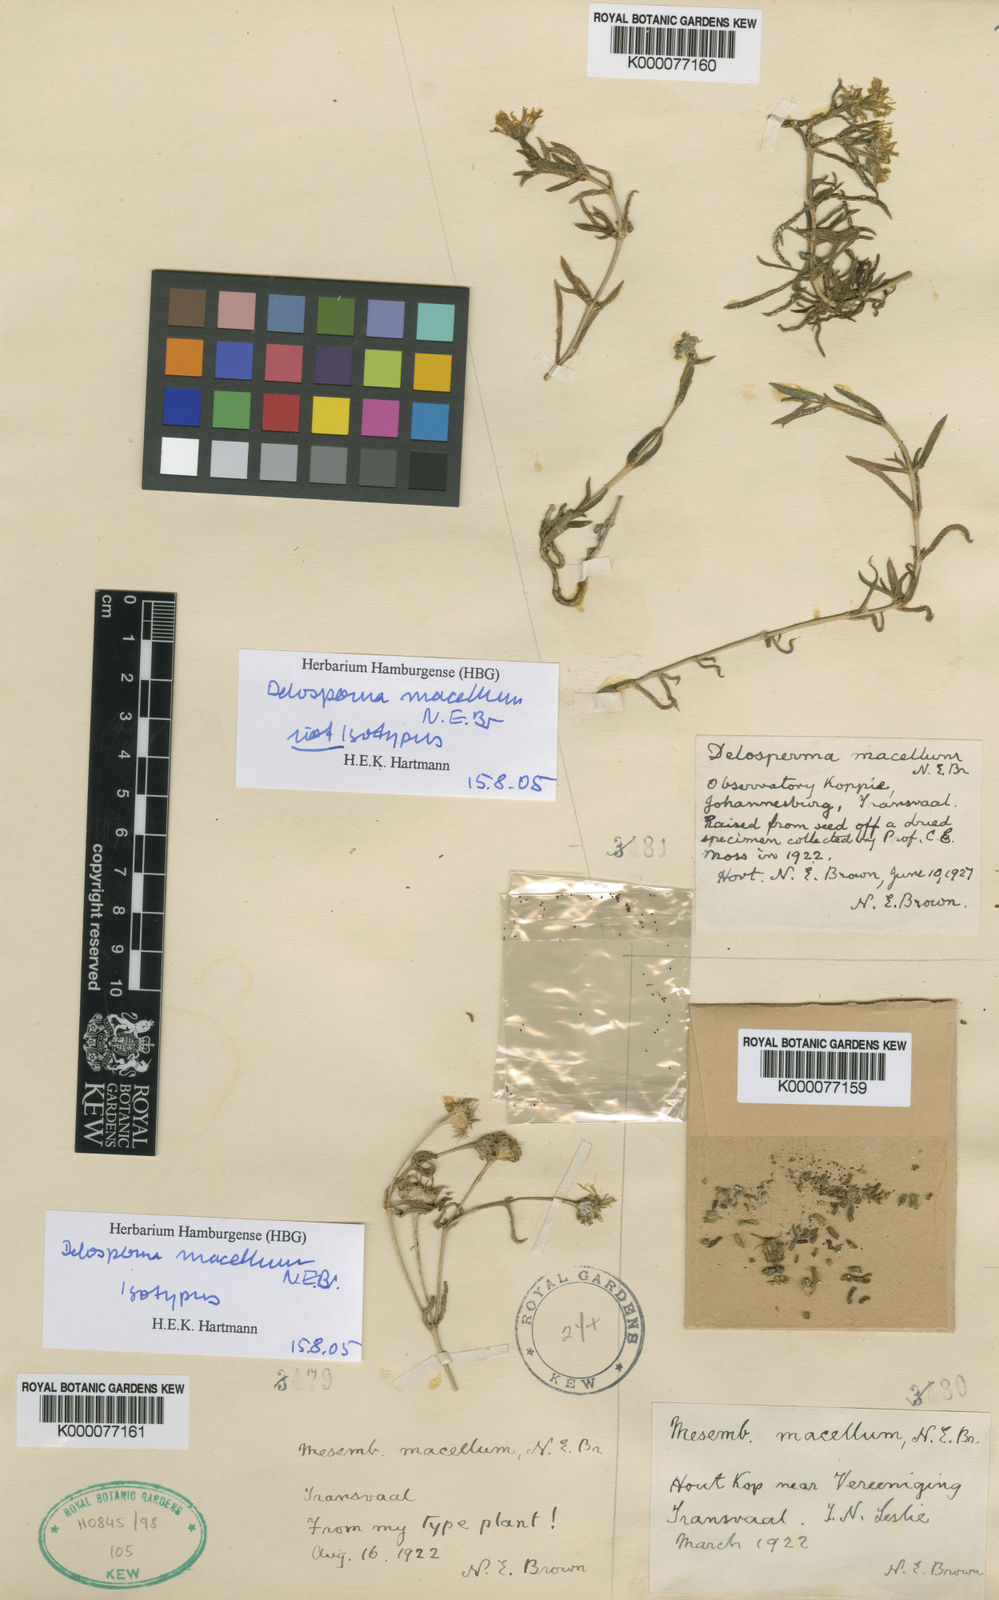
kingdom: Plantae
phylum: Tracheophyta
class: Magnoliopsida
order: Caryophyllales
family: Aizoaceae
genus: Delosperma
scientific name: Delosperma macellum
